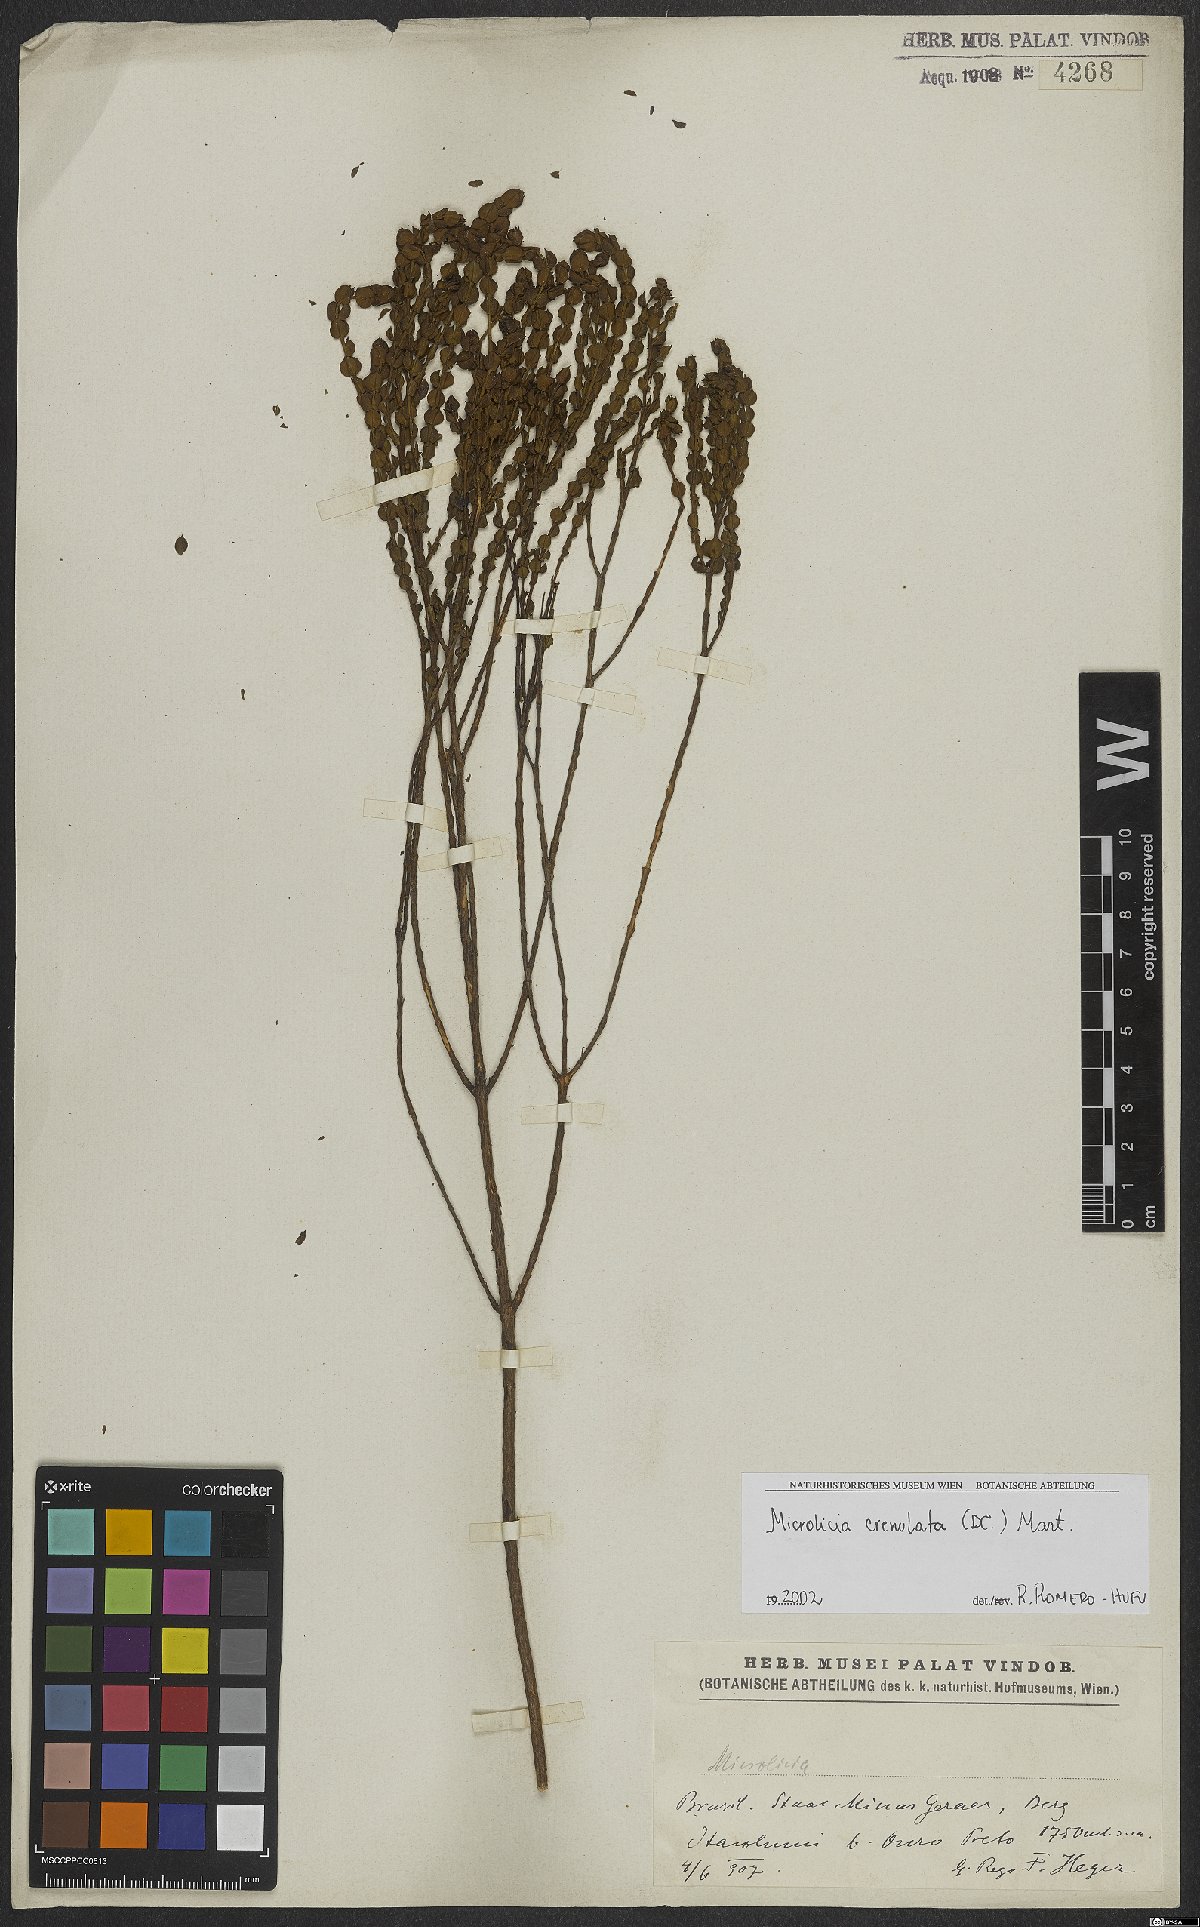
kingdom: Plantae
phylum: Tracheophyta
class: Magnoliopsida
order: Myrtales
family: Melastomataceae
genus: Microlicia
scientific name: Microlicia crenulata
